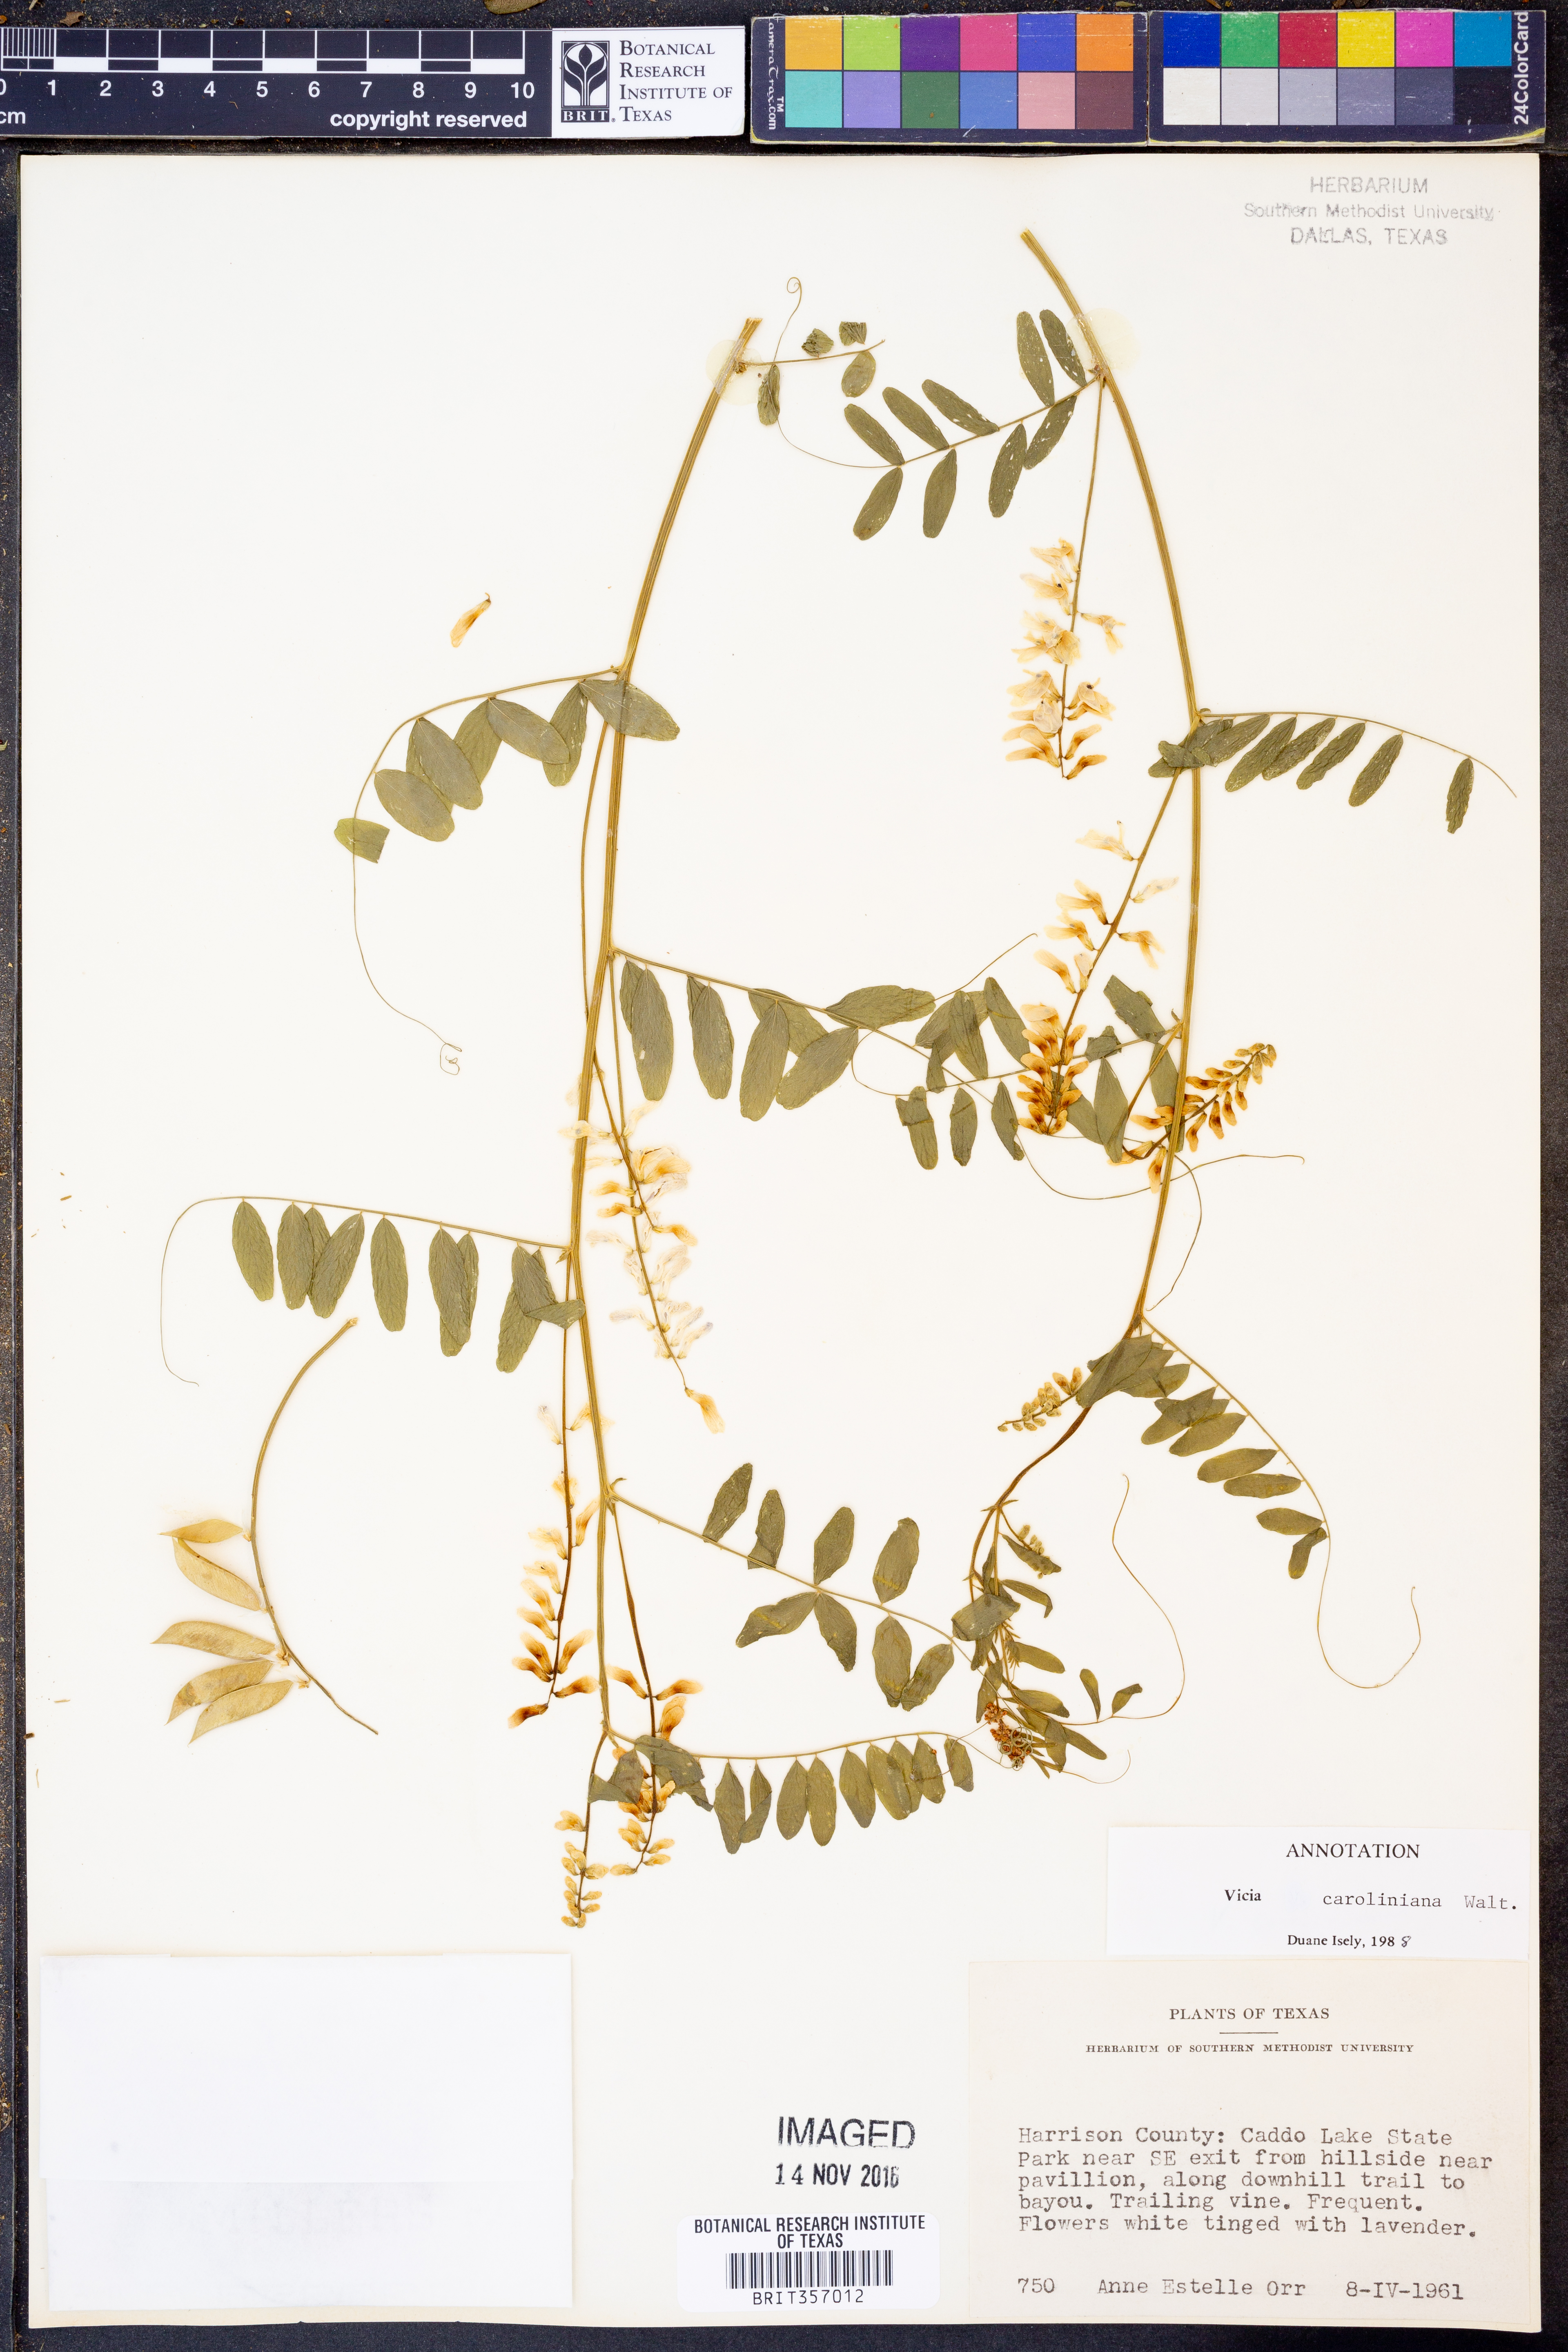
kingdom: Plantae
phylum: Tracheophyta
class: Magnoliopsida
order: Fabales
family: Fabaceae
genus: Vicia
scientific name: Vicia caroliniana
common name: Carolina vetch
